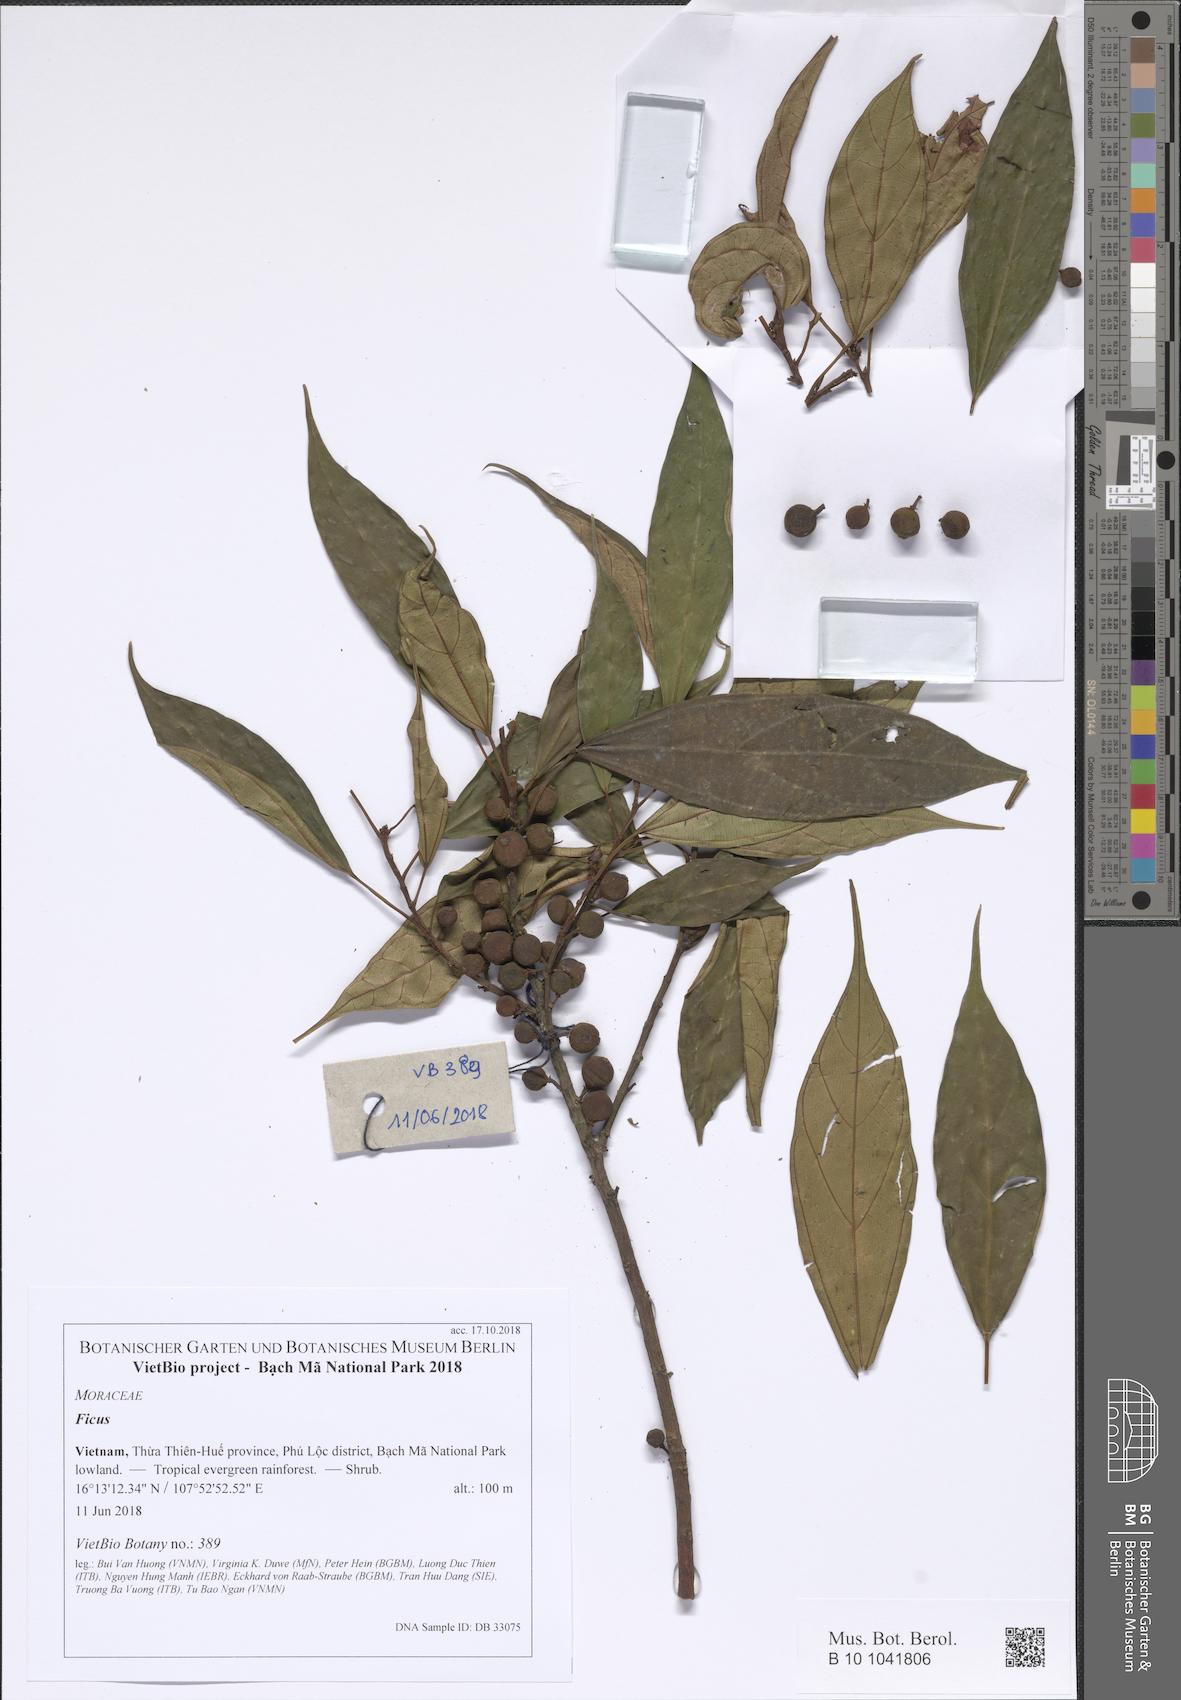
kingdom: Plantae
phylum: Tracheophyta
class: Magnoliopsida
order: Rosales
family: Moraceae
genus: Ficus
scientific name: Ficus
